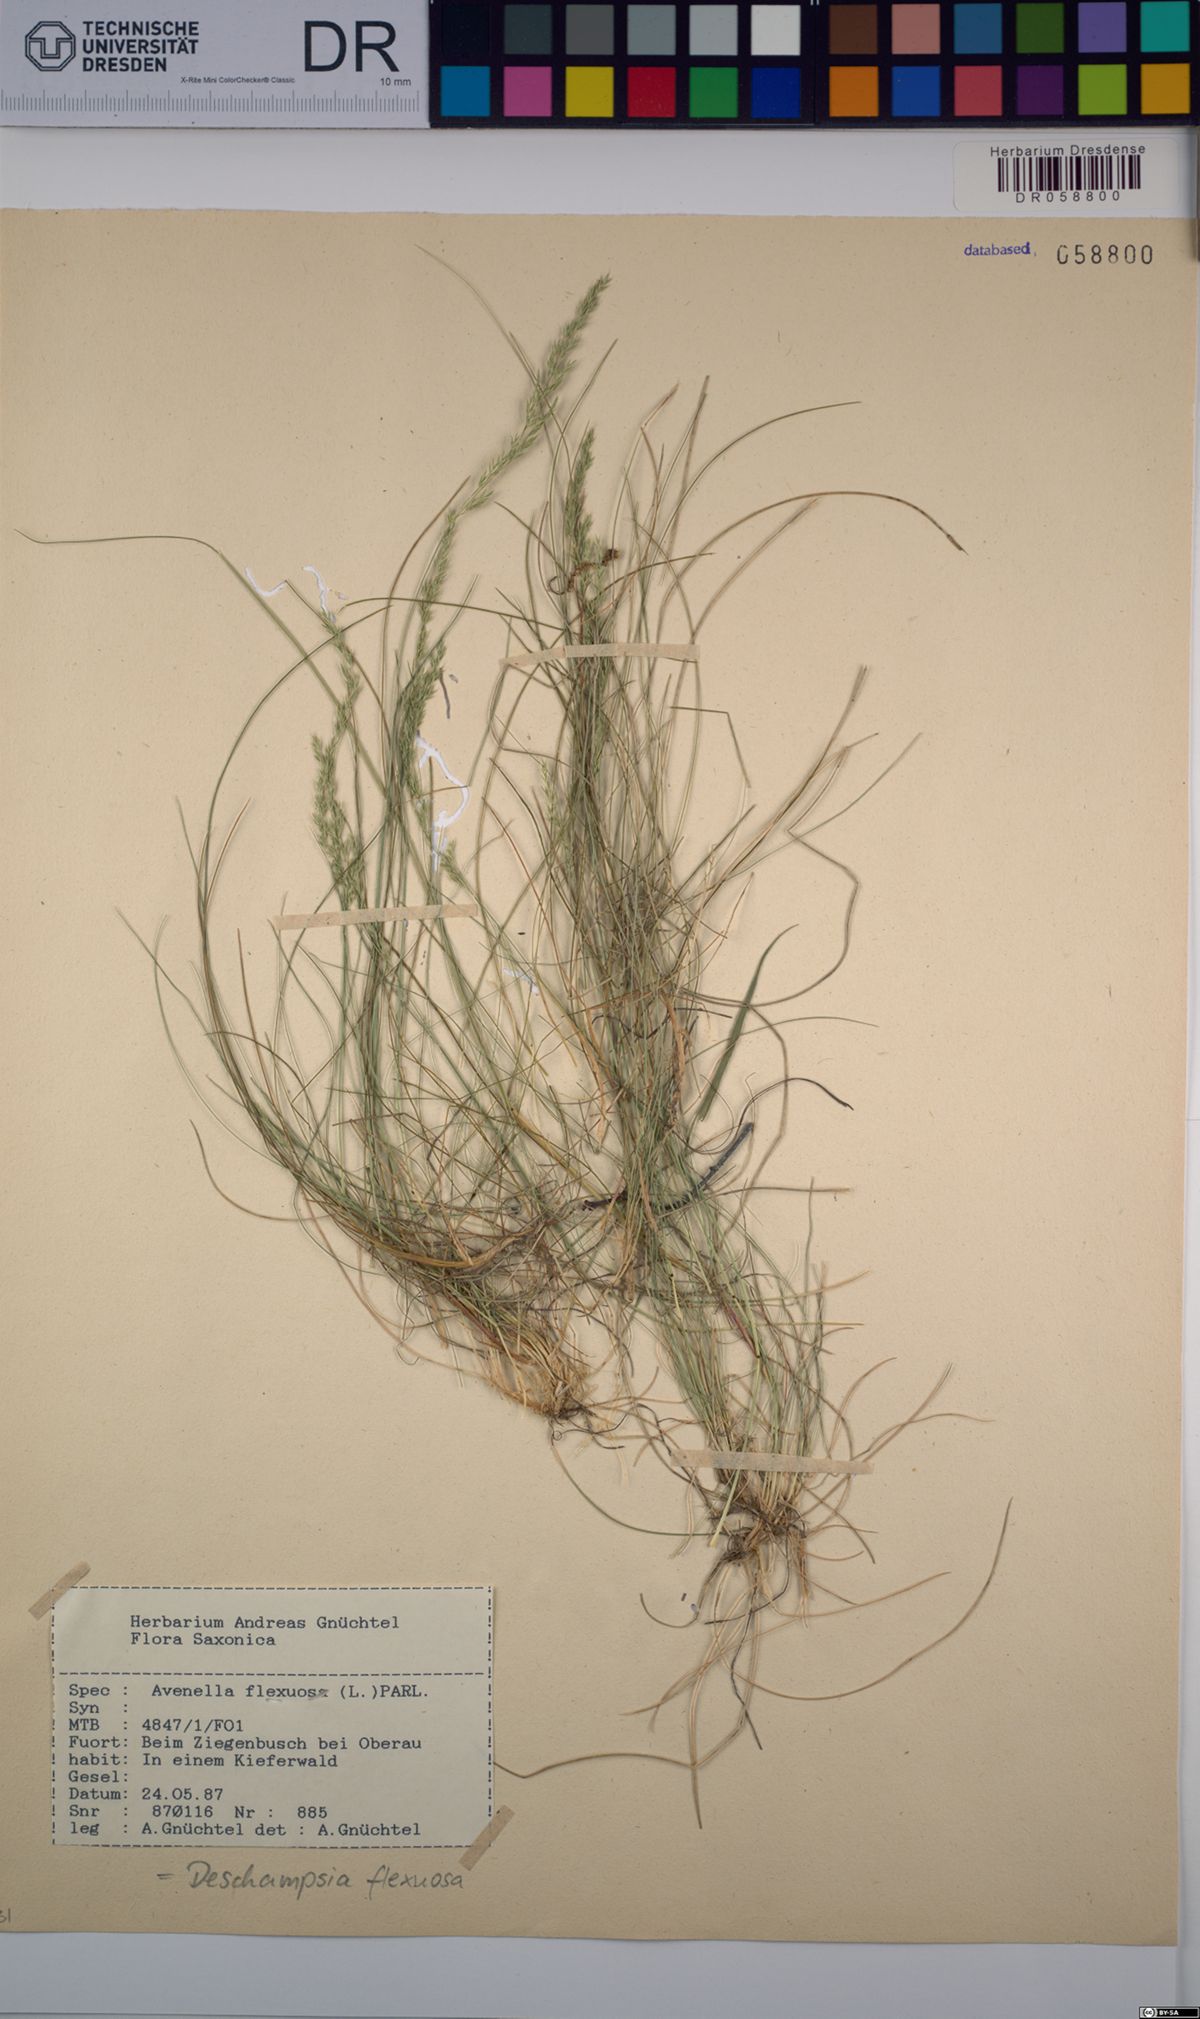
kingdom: Plantae
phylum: Tracheophyta
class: Liliopsida
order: Poales
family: Poaceae
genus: Avenella
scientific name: Avenella flexuosa
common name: Wavy hairgrass
